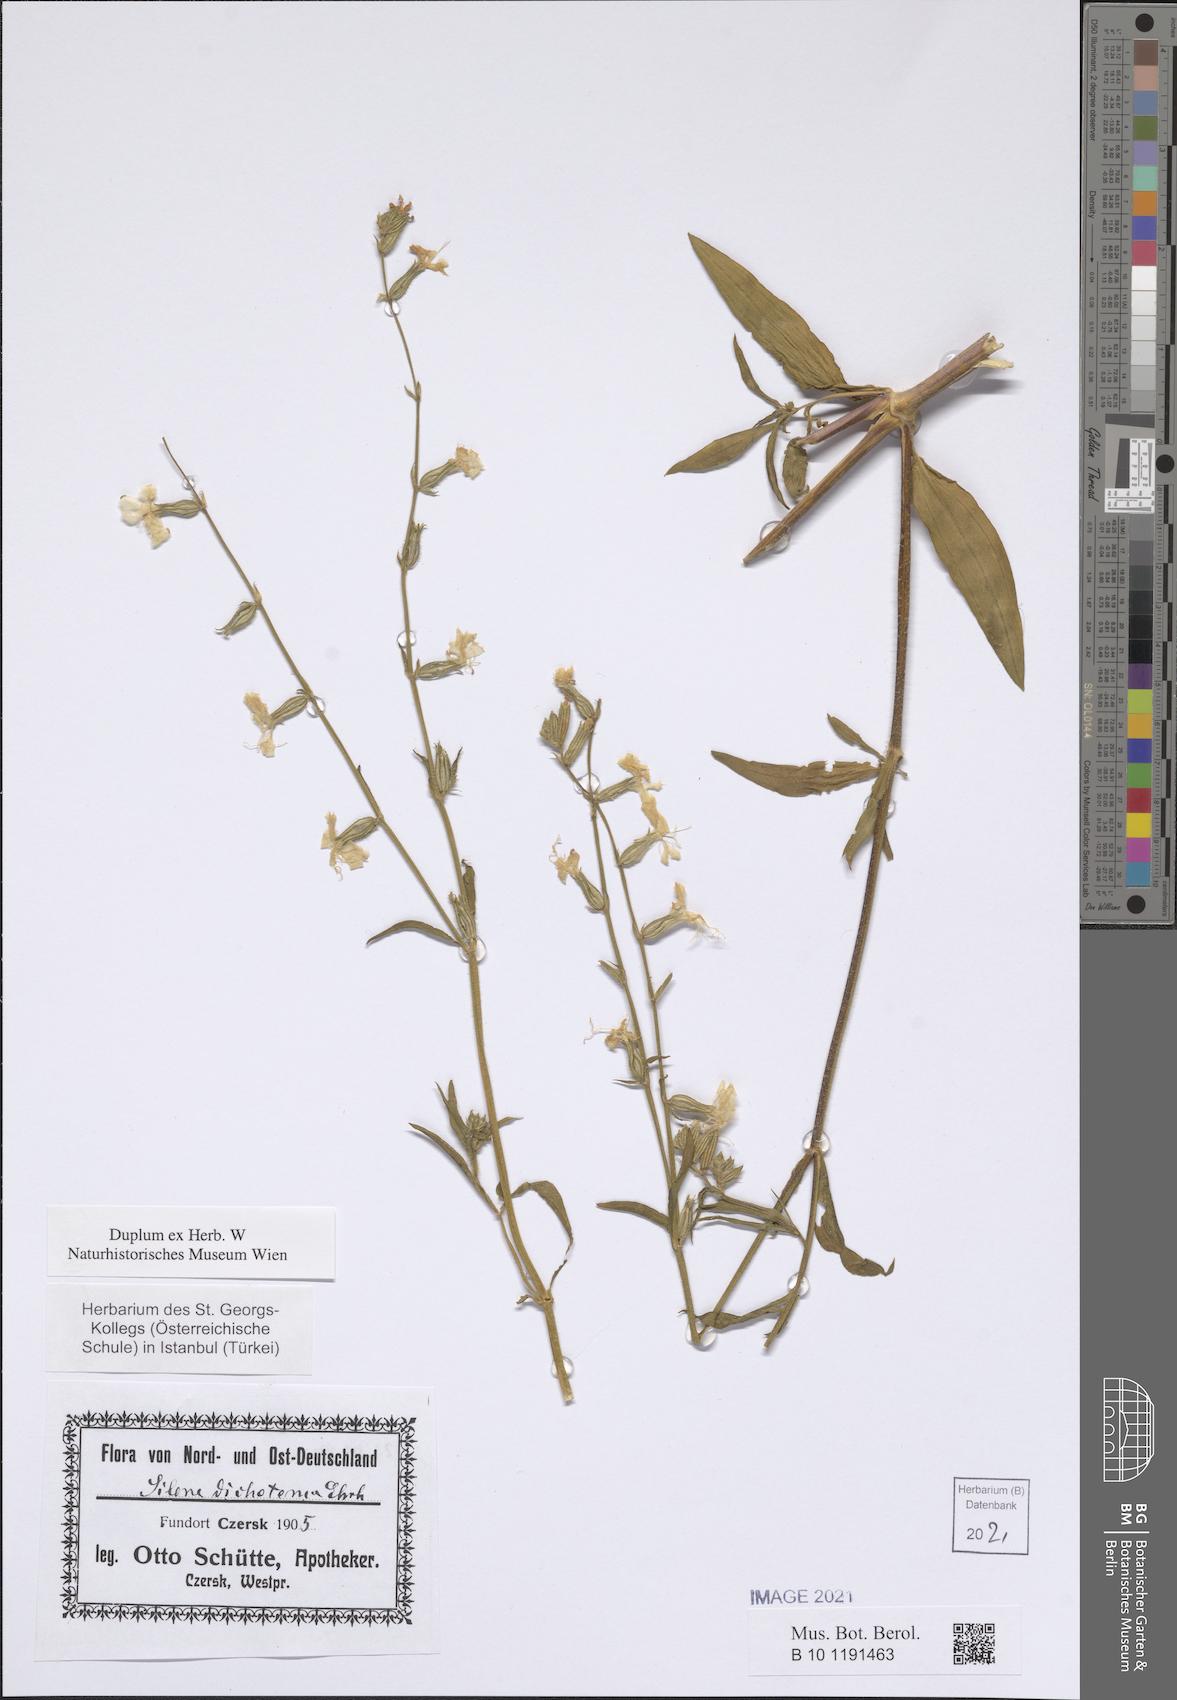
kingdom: Plantae
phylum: Tracheophyta
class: Magnoliopsida
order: Caryophyllales
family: Caryophyllaceae
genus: Silene
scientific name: Silene dichotoma
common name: Forked catchfly
